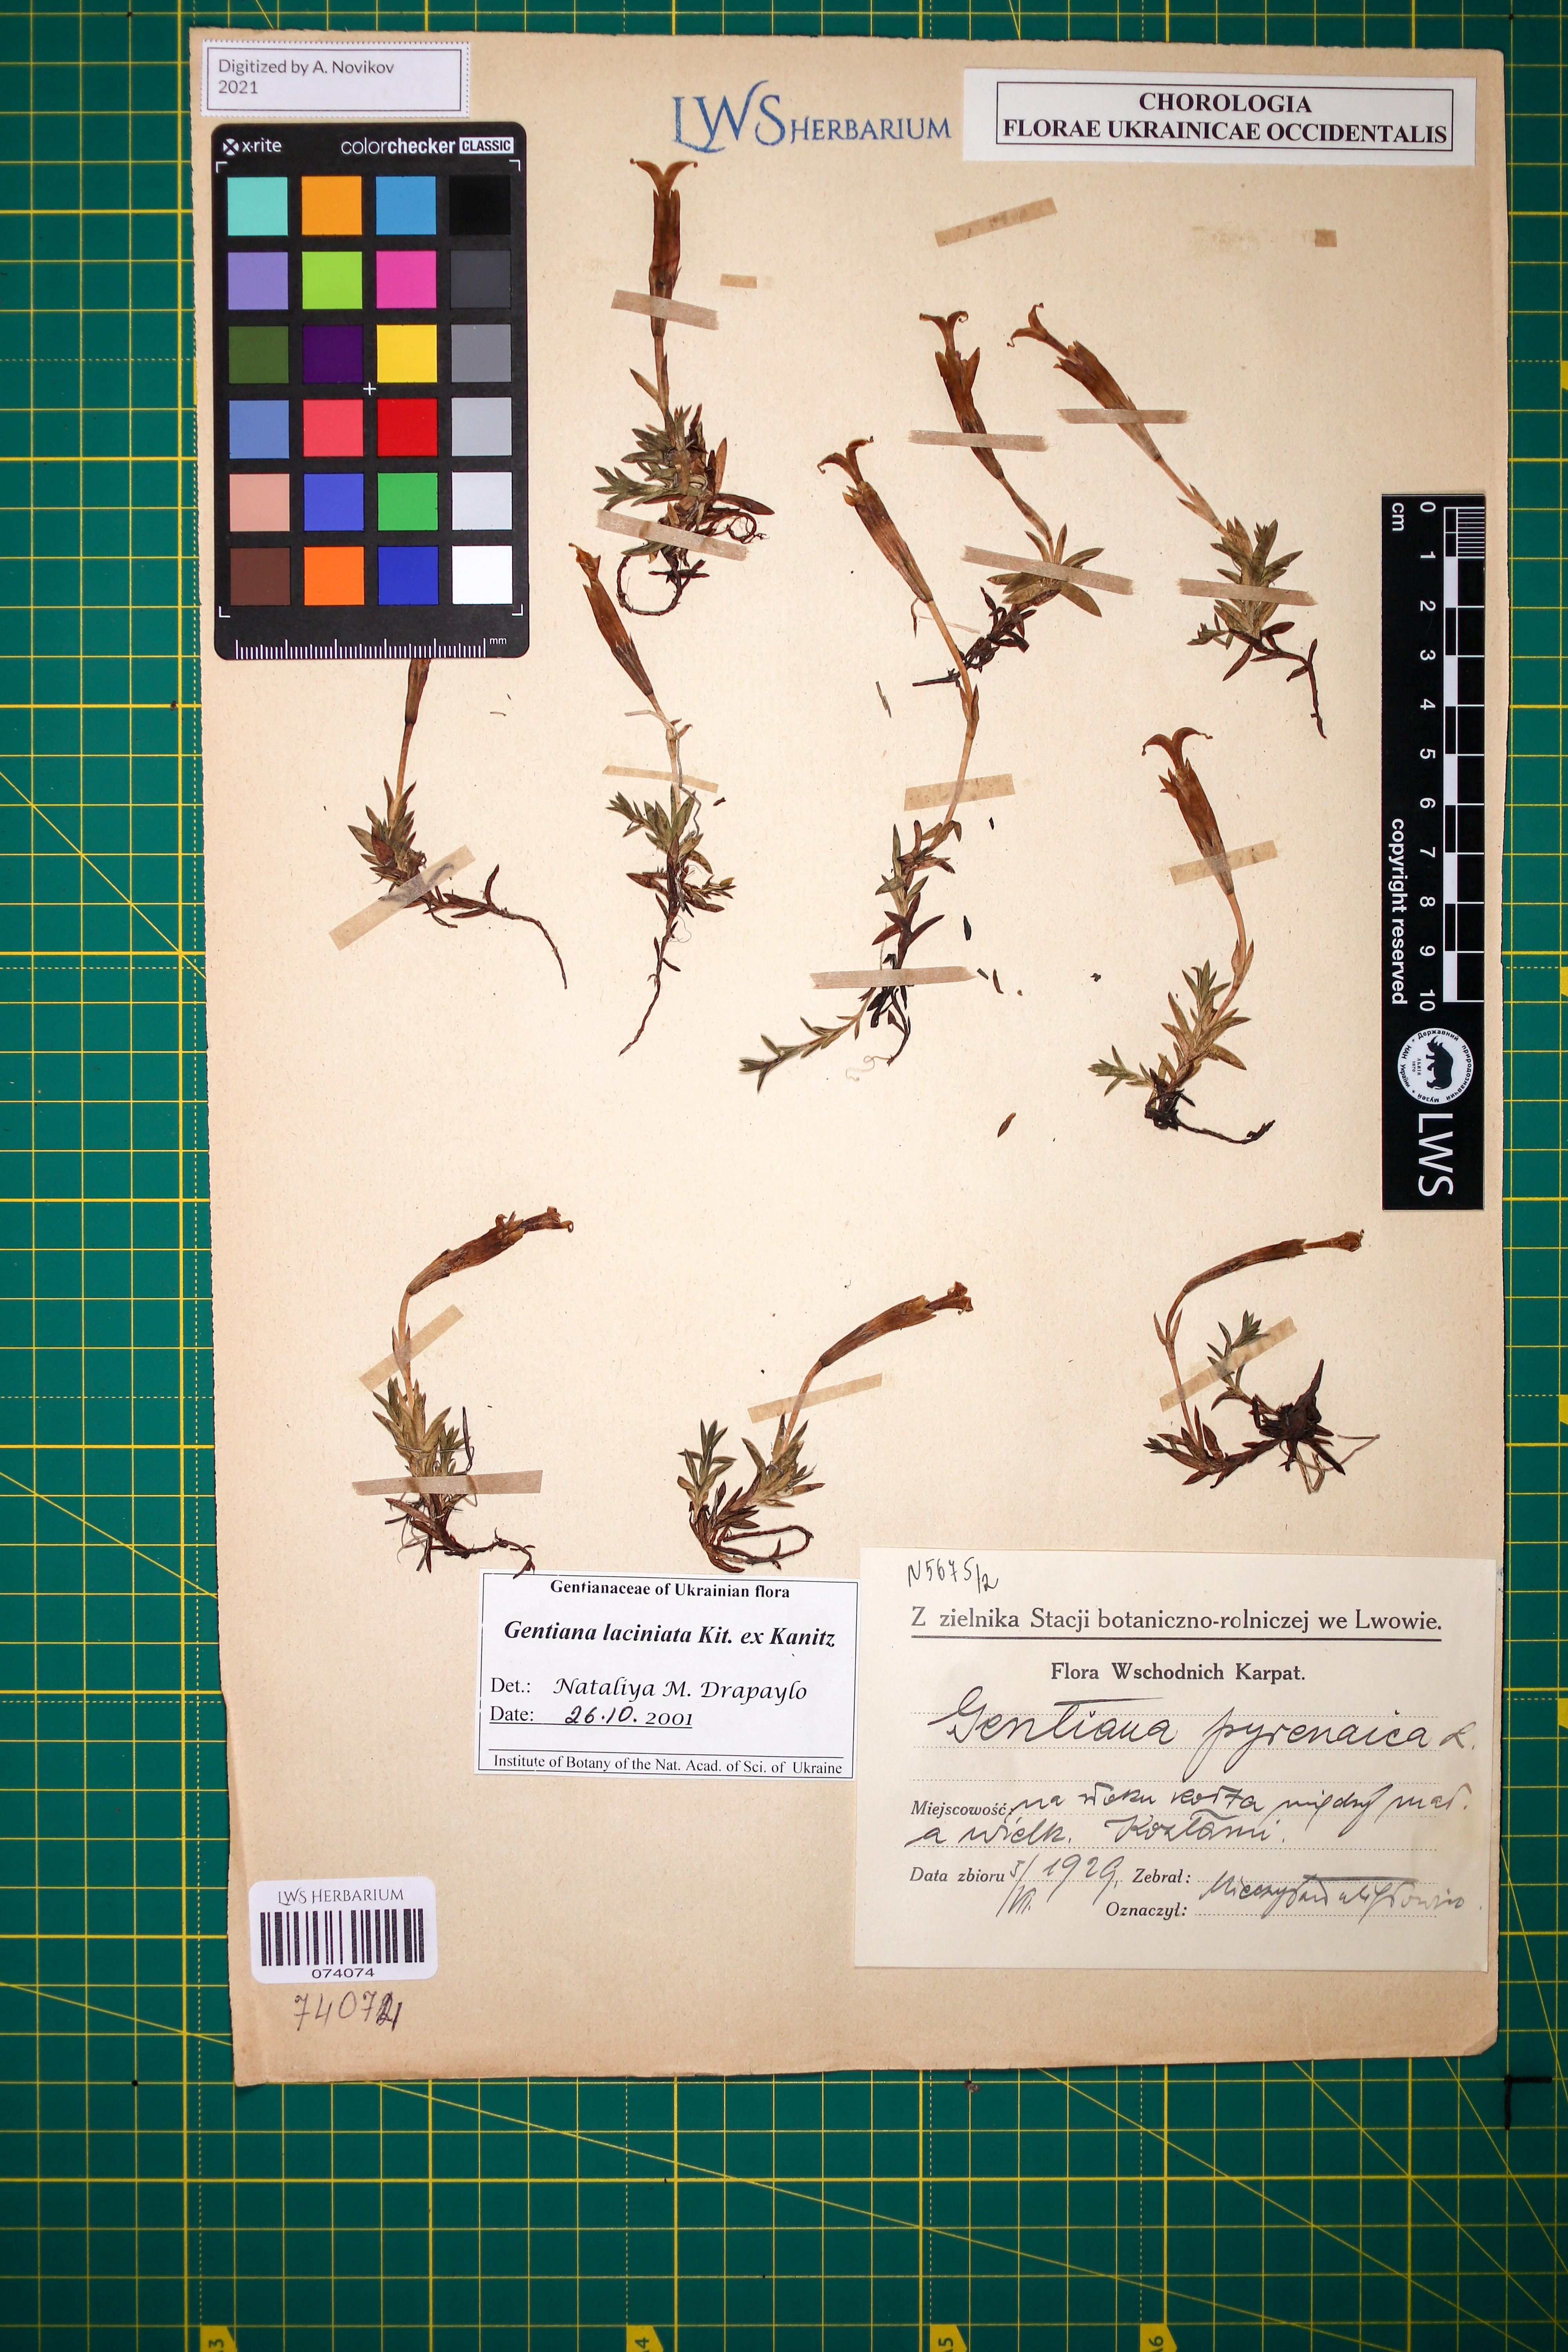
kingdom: Plantae
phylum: Tracheophyta
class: Magnoliopsida
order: Gentianales
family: Gentianaceae
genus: Gentiana
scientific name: Gentiana laciniata
